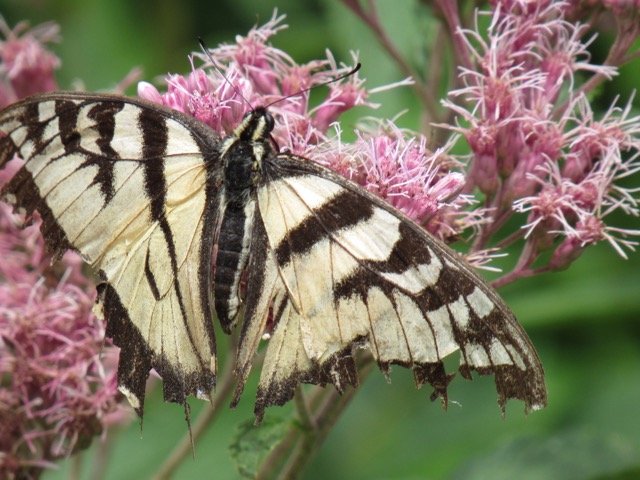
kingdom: Animalia
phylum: Arthropoda
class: Insecta
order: Lepidoptera
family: Papilionidae
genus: Pterourus
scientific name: Pterourus
